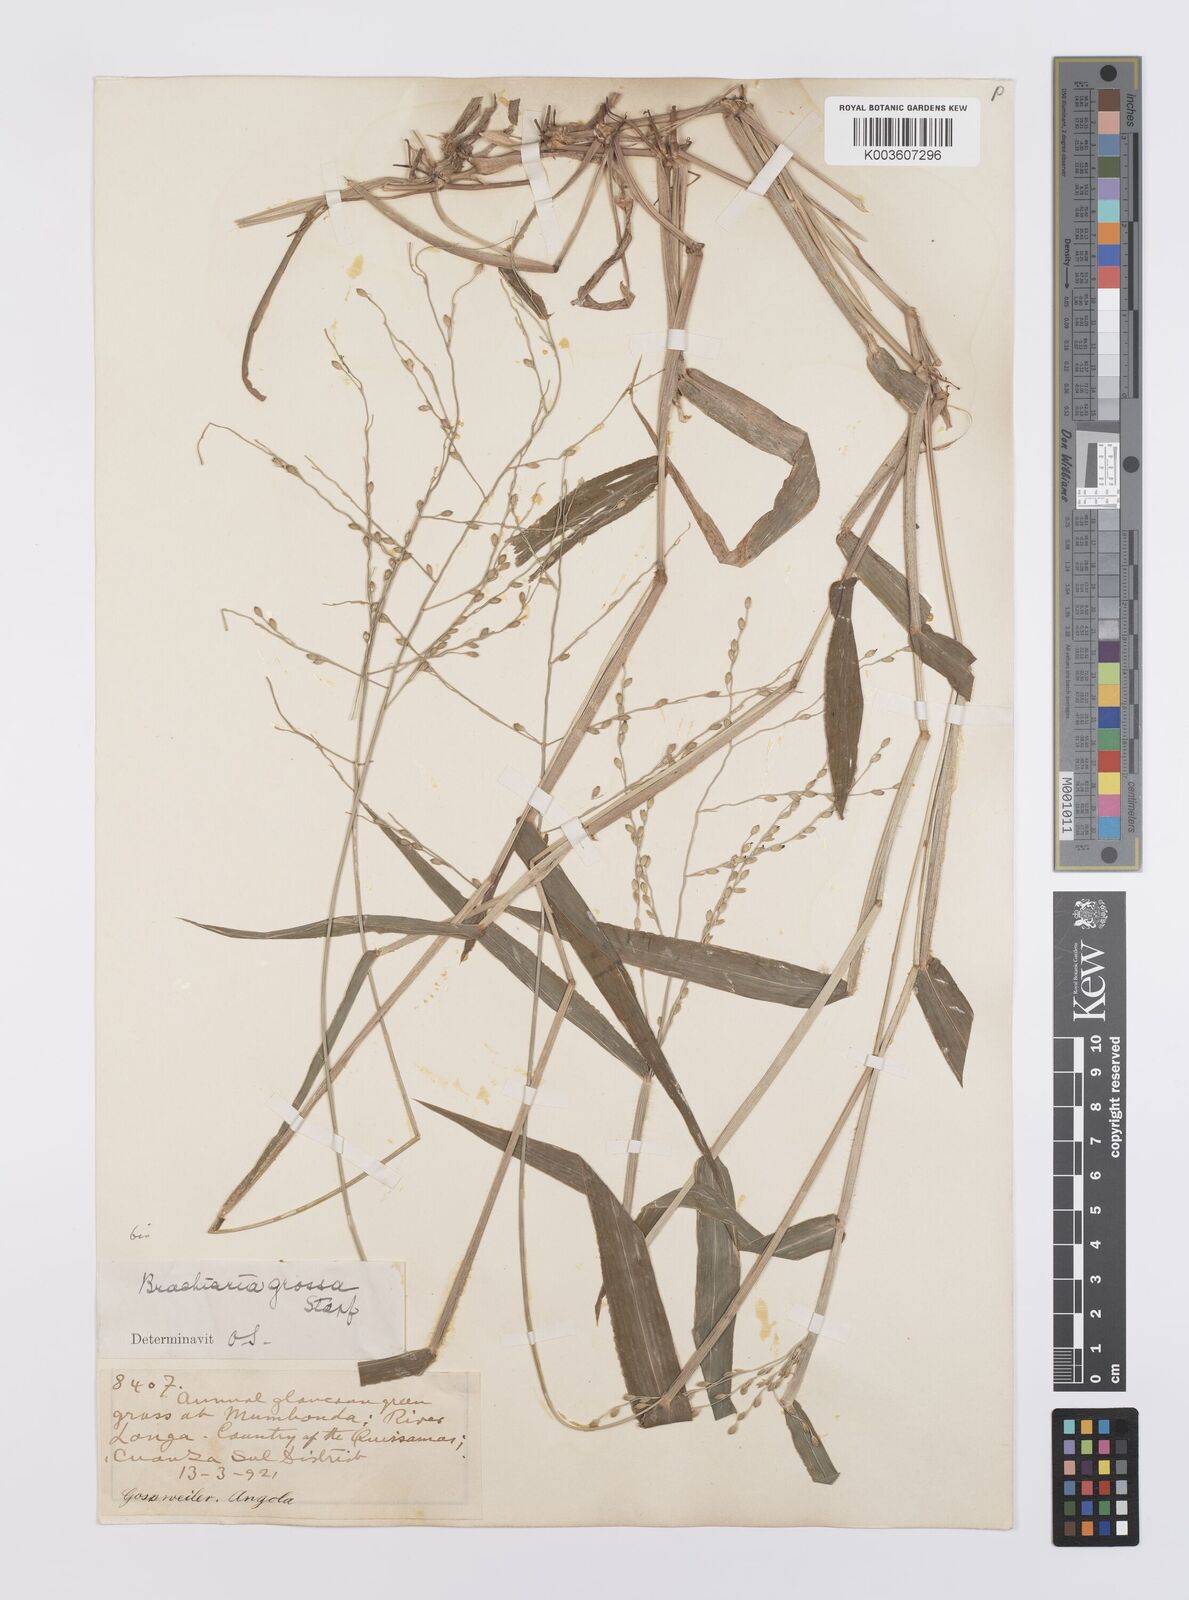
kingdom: Plantae
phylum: Tracheophyta
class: Liliopsida
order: Poales
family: Poaceae
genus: Urochloa
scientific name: Urochloa Brachiaria grossa
